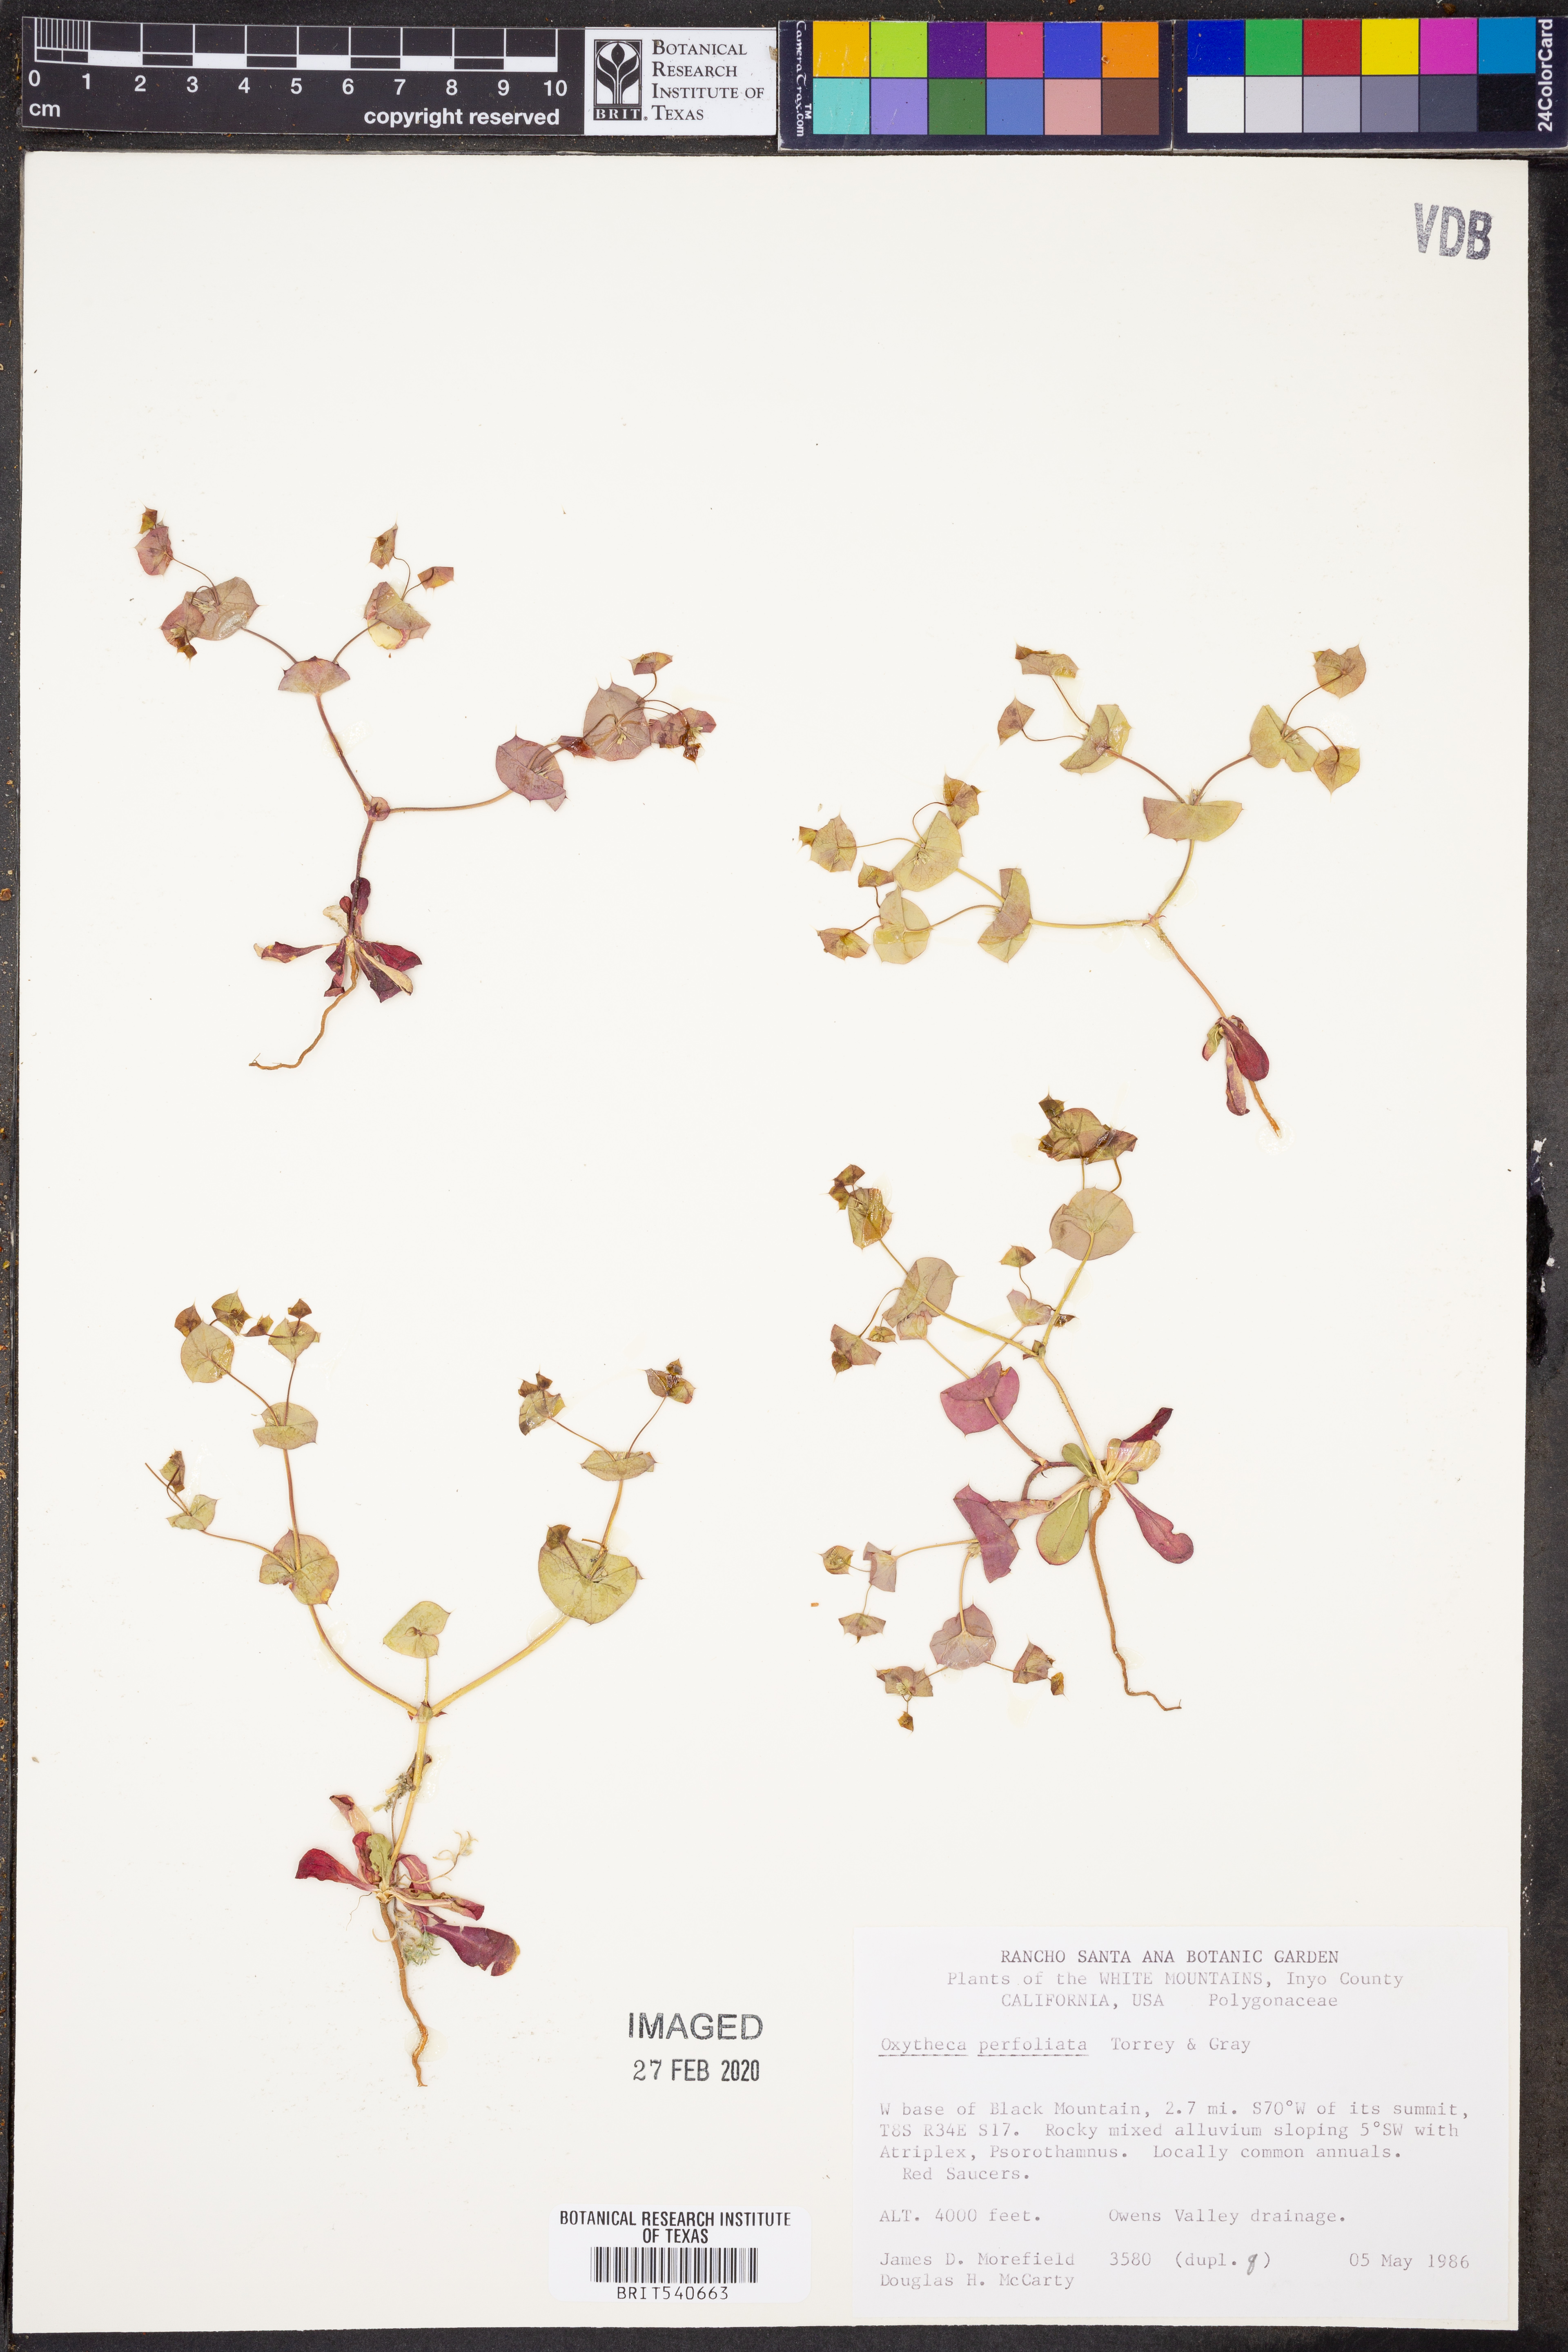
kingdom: Plantae
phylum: Tracheophyta
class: Magnoliopsida
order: Caryophyllales
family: Polygonaceae
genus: Oxytheca
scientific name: Oxytheca perfoliata
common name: Round-leaf puncturebract
